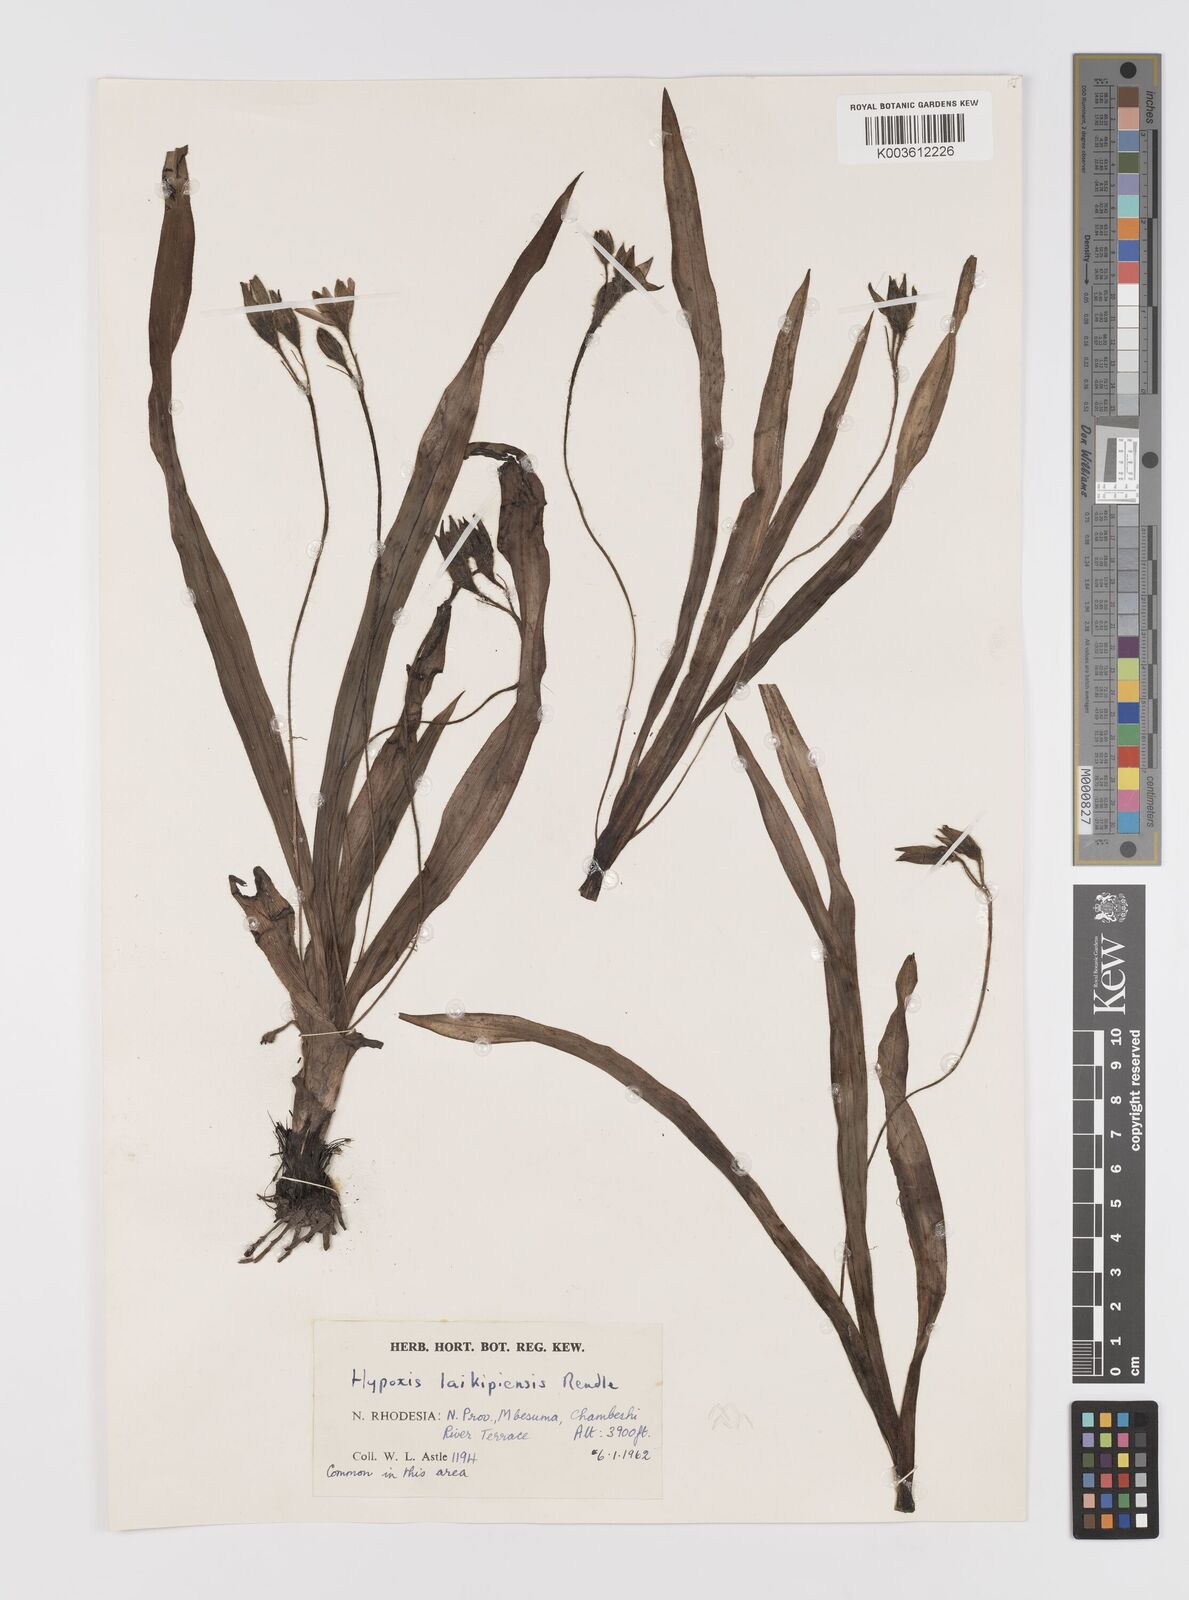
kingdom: Plantae
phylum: Tracheophyta
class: Liliopsida
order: Asparagales
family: Hypoxidaceae
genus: Hypoxis
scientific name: Hypoxis angustifolia
